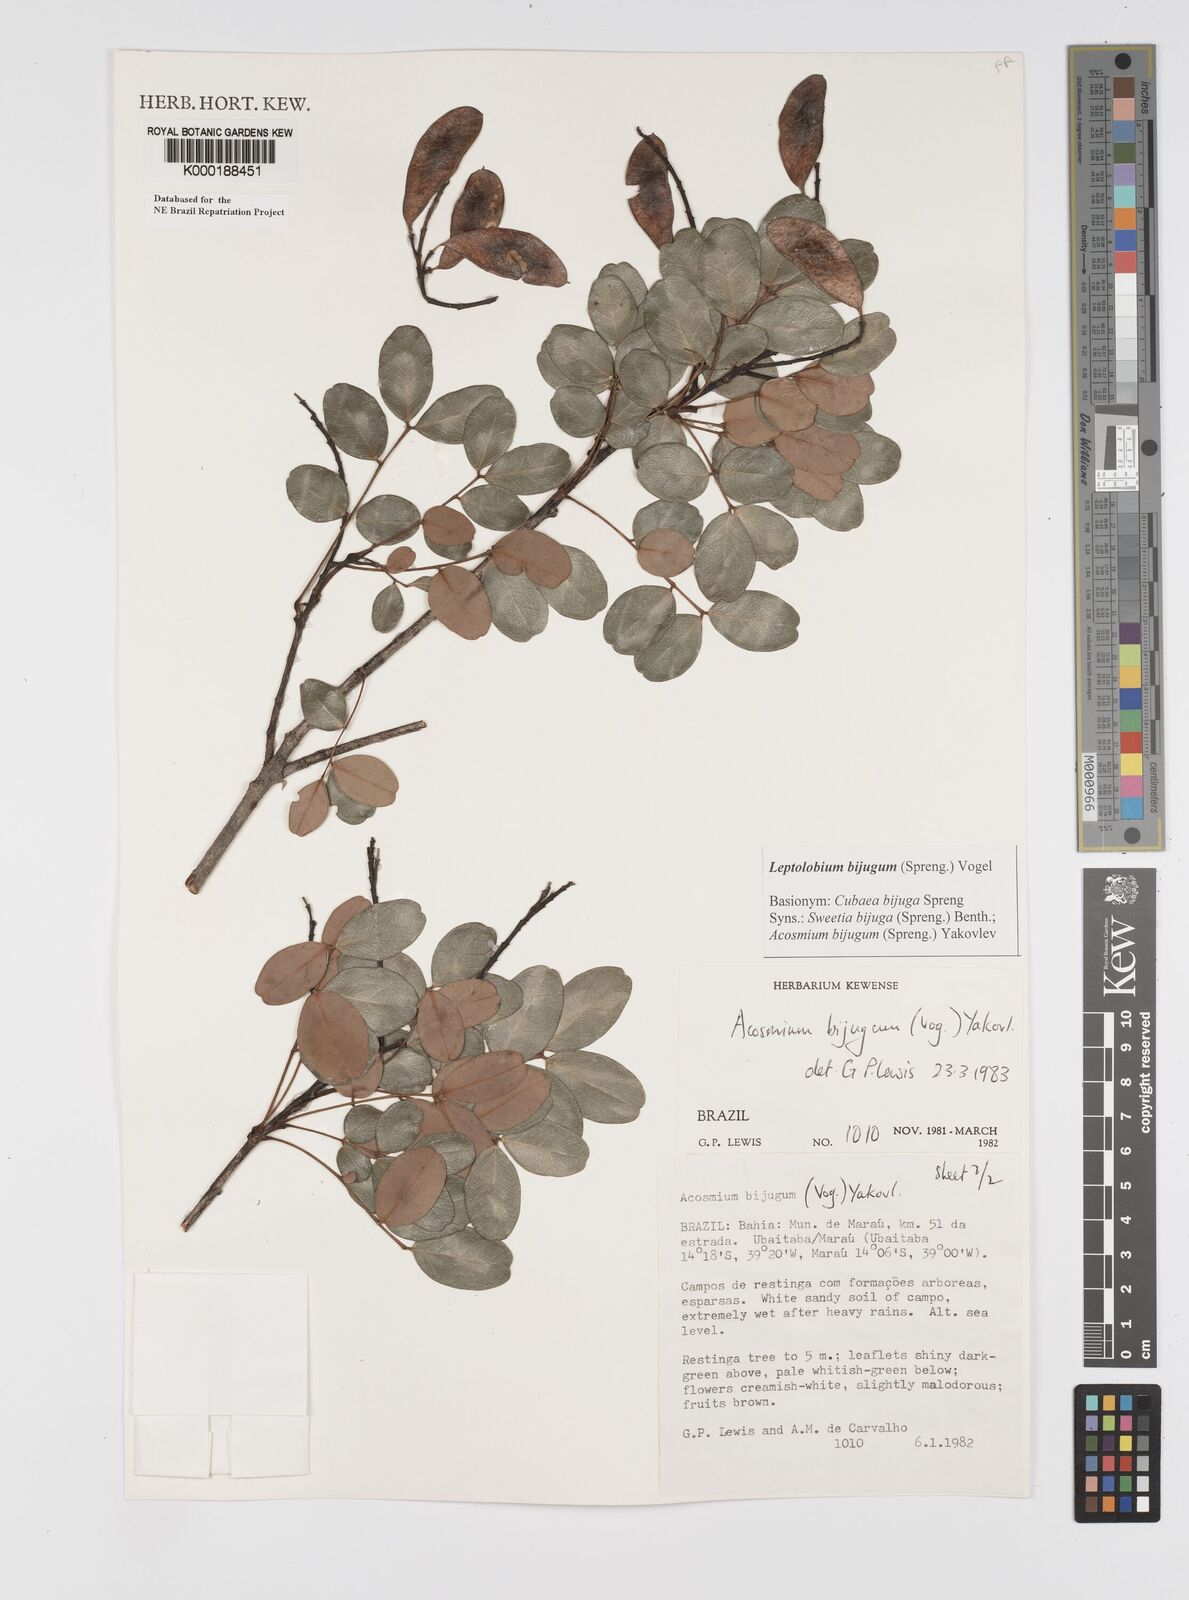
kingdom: Plantae
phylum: Tracheophyta
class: Magnoliopsida
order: Fabales
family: Fabaceae
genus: Leptolobium
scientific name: Leptolobium bijugum
